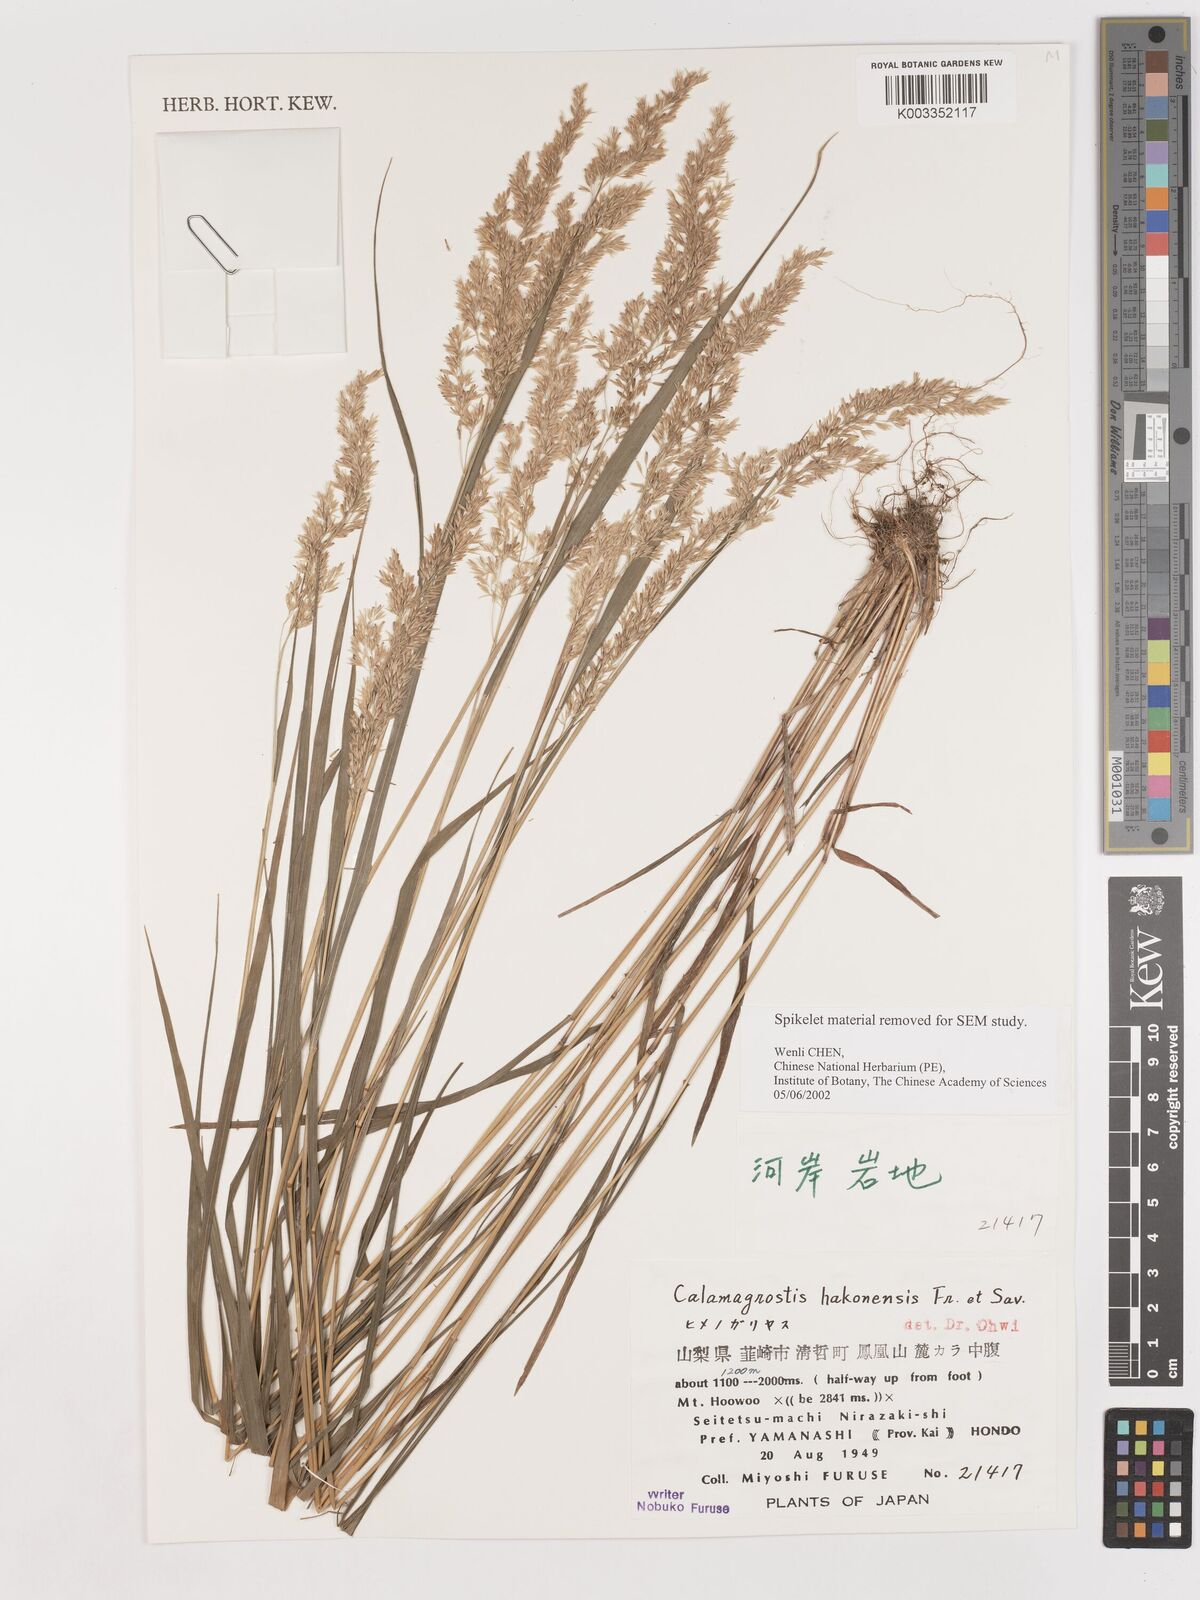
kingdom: Plantae
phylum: Tracheophyta
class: Liliopsida
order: Poales
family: Poaceae
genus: Calamagrostis
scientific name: Calamagrostis hakonensis
